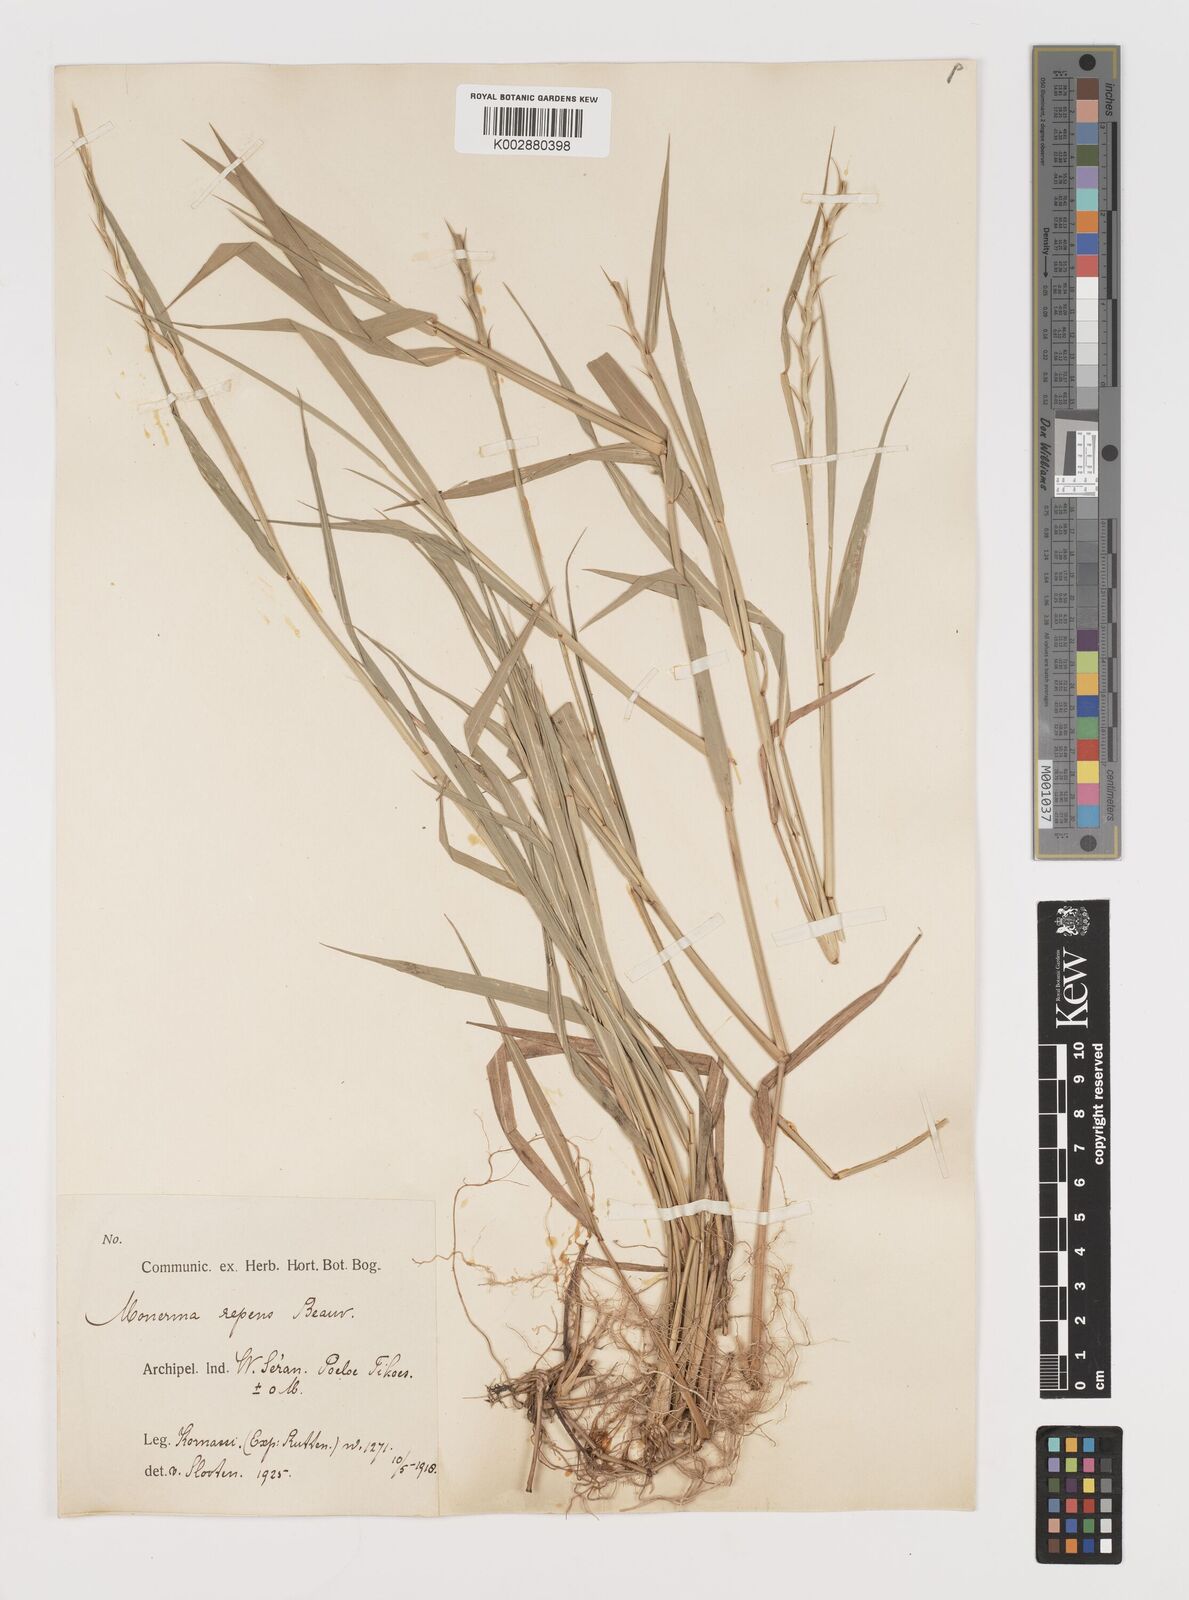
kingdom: Plantae
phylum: Tracheophyta
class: Liliopsida
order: Poales
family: Poaceae
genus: Lepturus
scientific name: Lepturus repens
